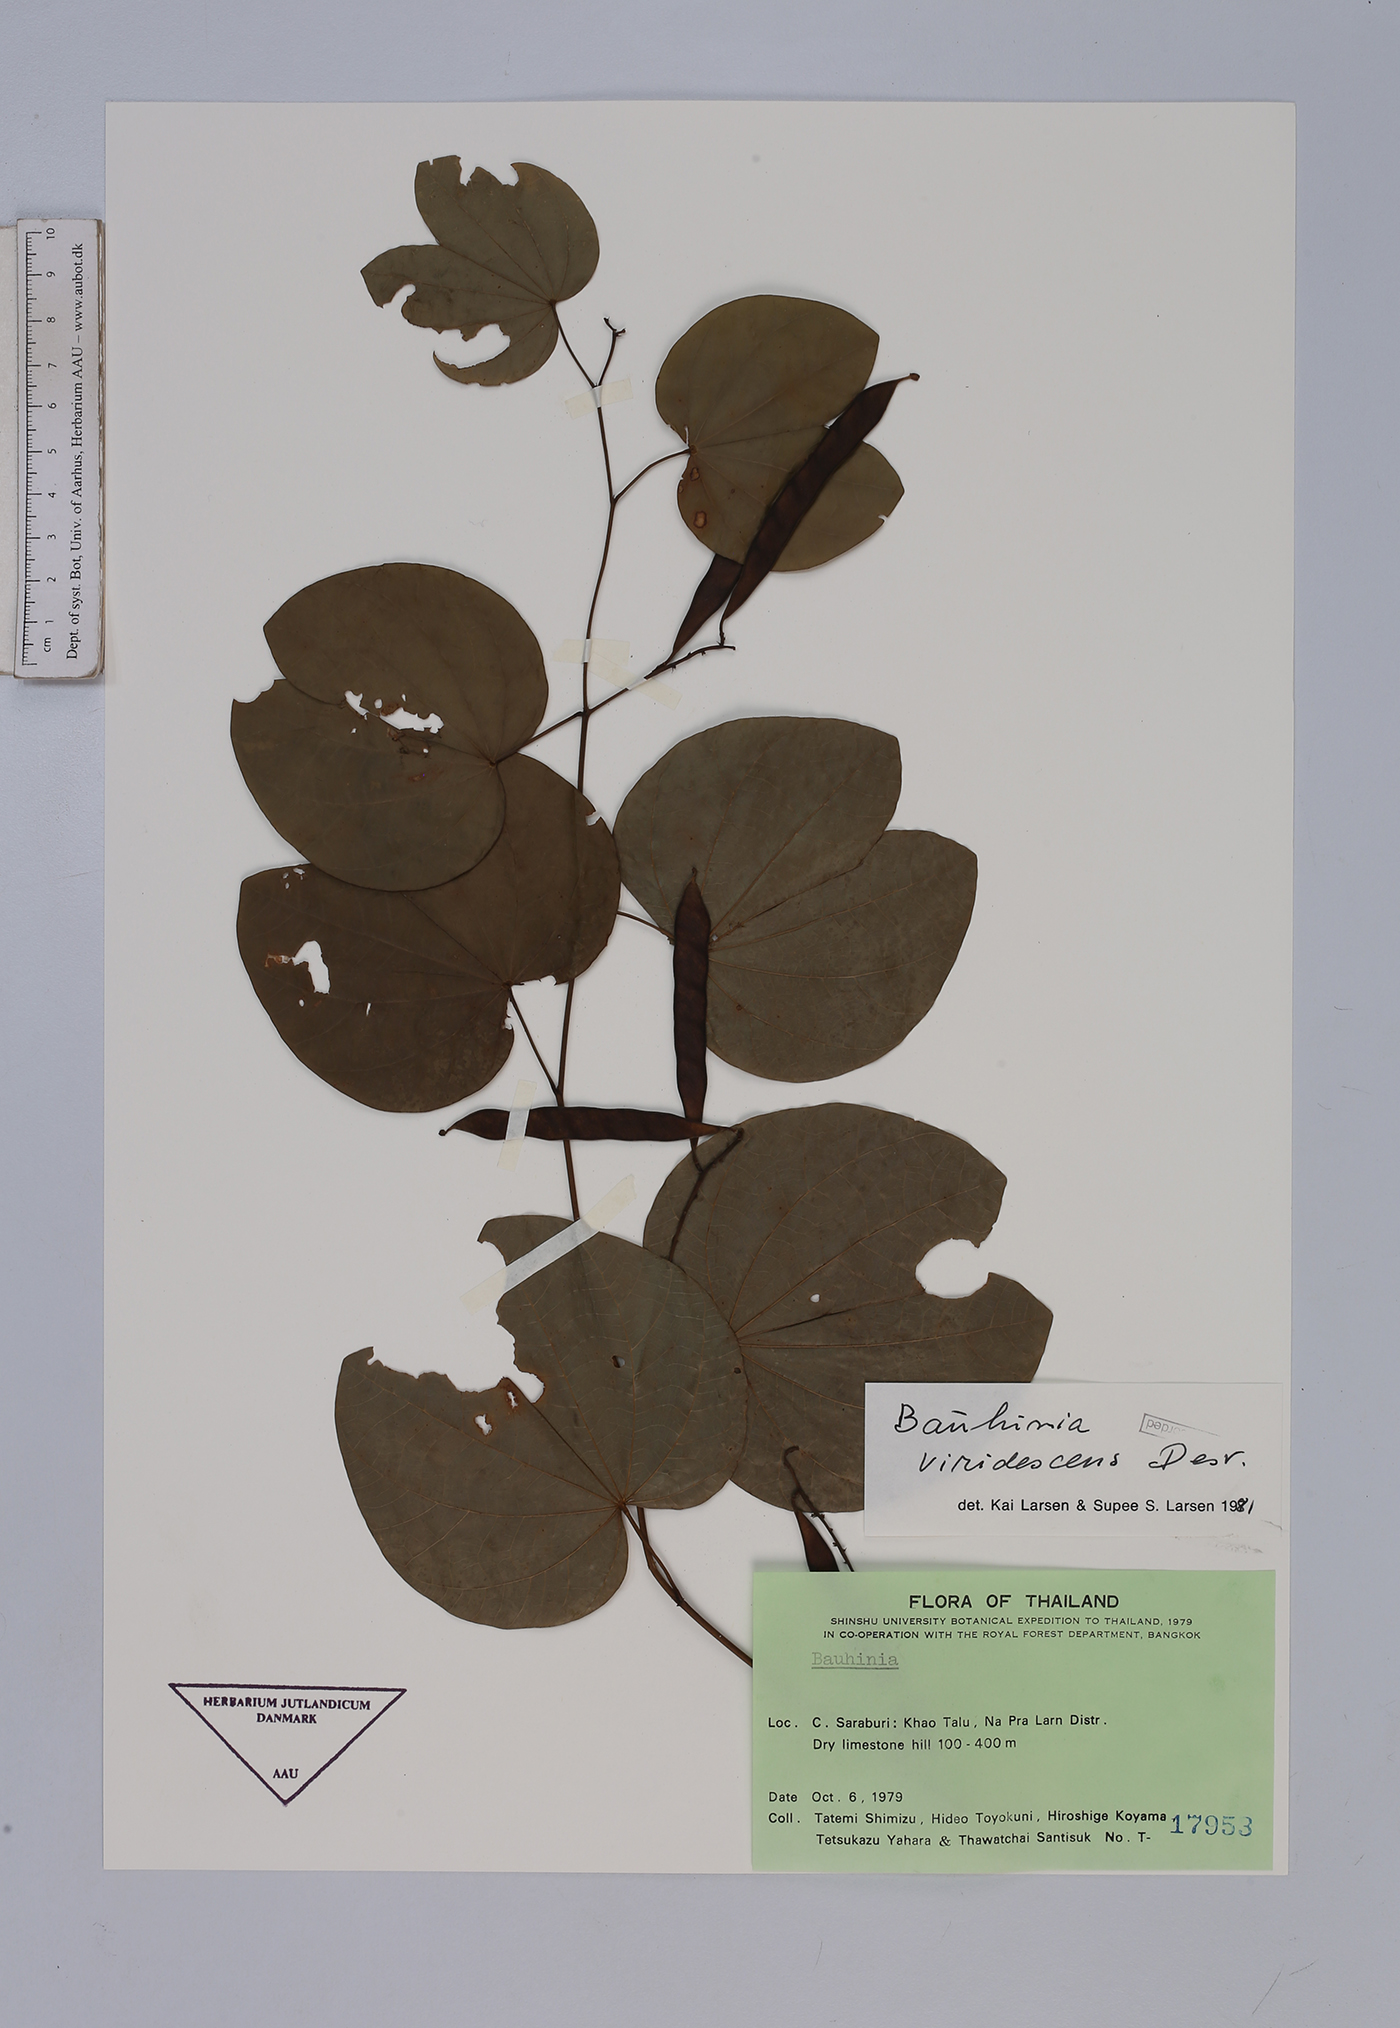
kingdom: Plantae
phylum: Tracheophyta
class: Magnoliopsida
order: Fabales
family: Fabaceae
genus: Bauhinia
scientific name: Bauhinia viridescens
